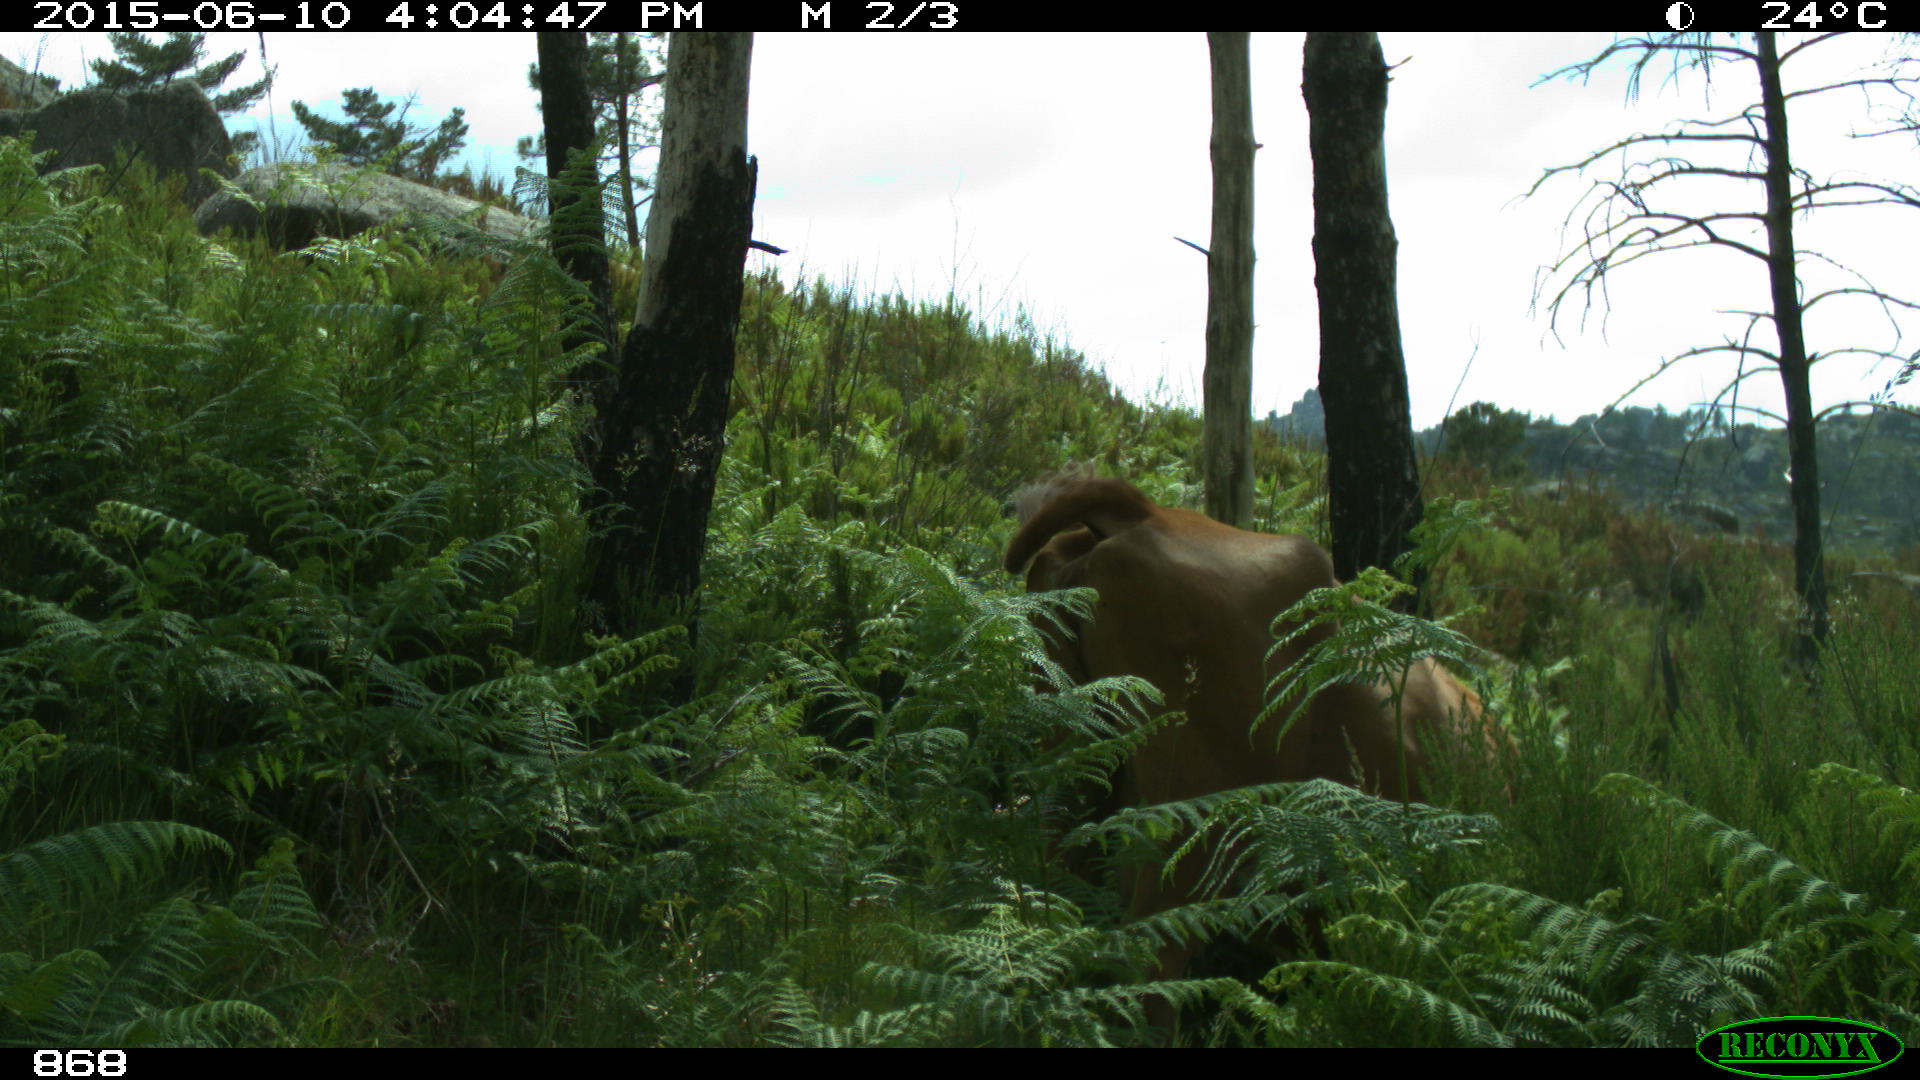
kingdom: Animalia
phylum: Chordata
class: Mammalia
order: Artiodactyla
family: Bovidae
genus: Bos
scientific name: Bos taurus
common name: Domesticated cattle
